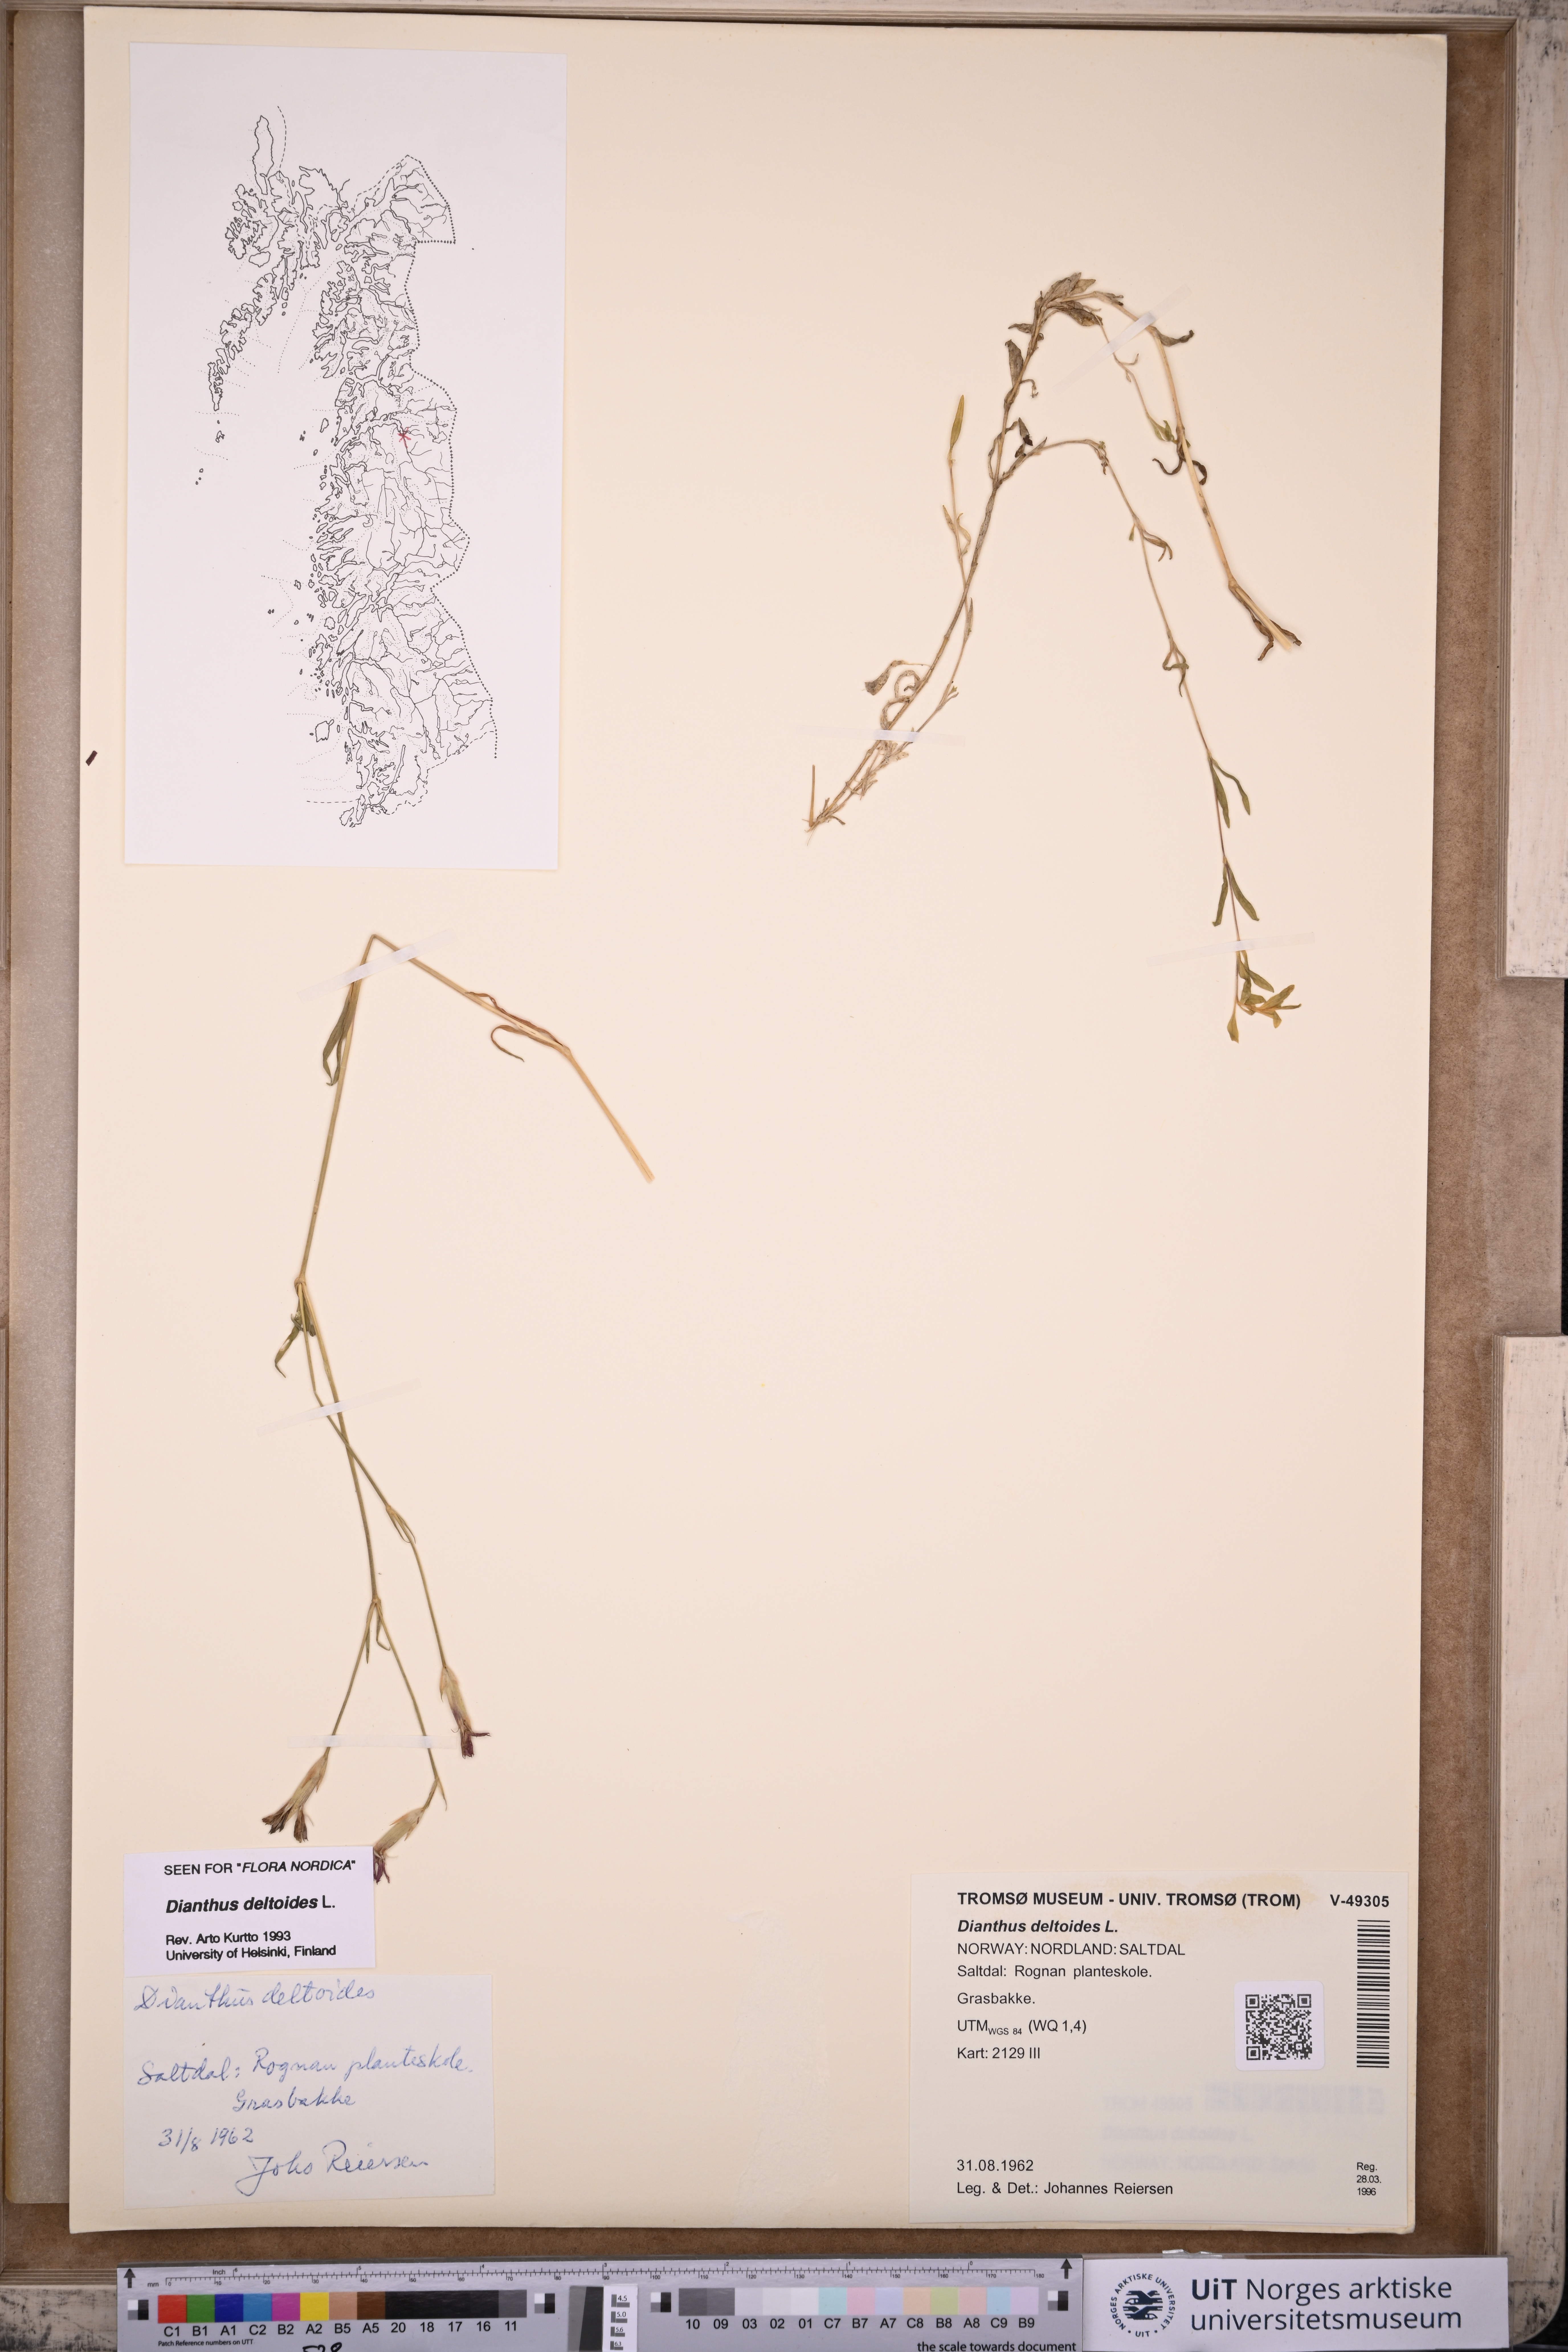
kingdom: Plantae
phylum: Tracheophyta
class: Magnoliopsida
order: Caryophyllales
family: Caryophyllaceae
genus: Dianthus
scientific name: Dianthus deltoides
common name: Maiden pink
